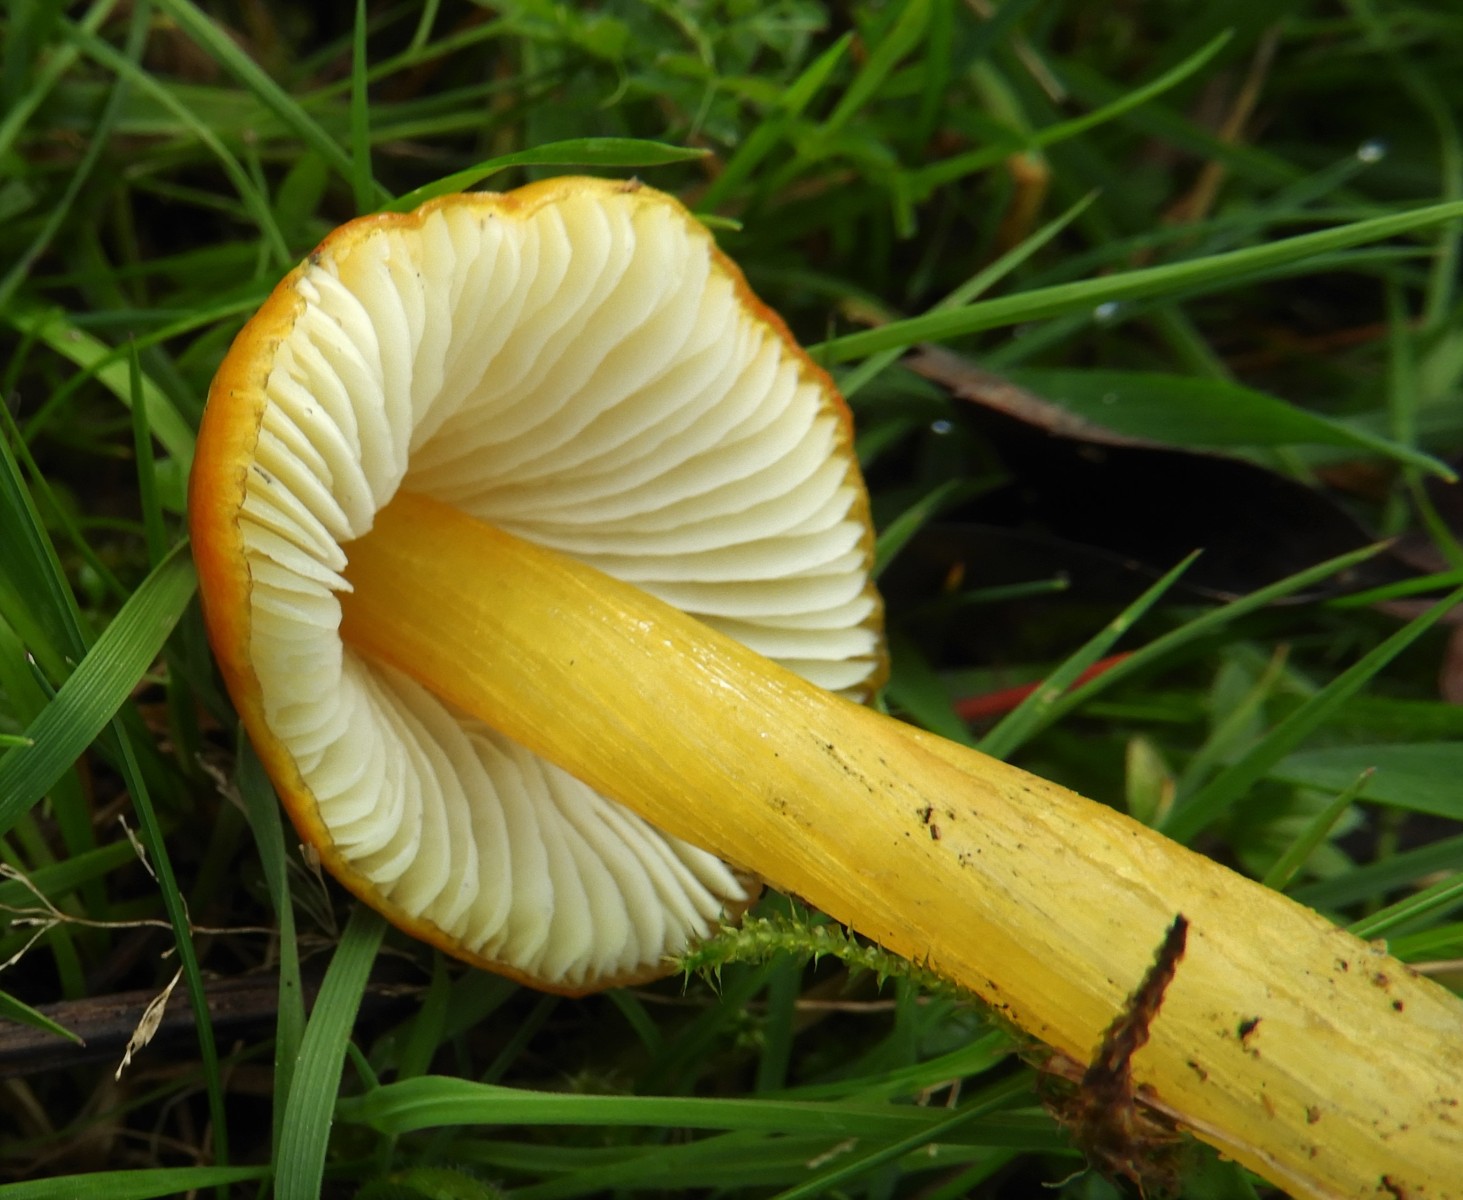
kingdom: Fungi
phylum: Basidiomycota
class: Agaricomycetes
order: Agaricales
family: Hygrophoraceae
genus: Hygrocybe
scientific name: Hygrocybe conica
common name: kegle-vokshat
